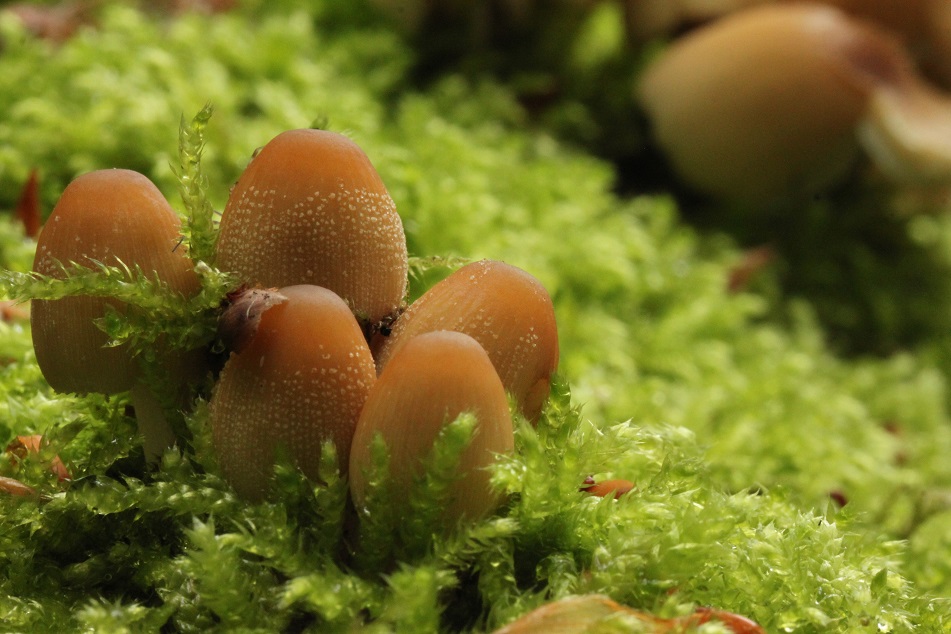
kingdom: Fungi
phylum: Basidiomycota
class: Agaricomycetes
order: Agaricales
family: Psathyrellaceae
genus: Coprinellus
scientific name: Coprinellus micaceus
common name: glimmer-blækhat
